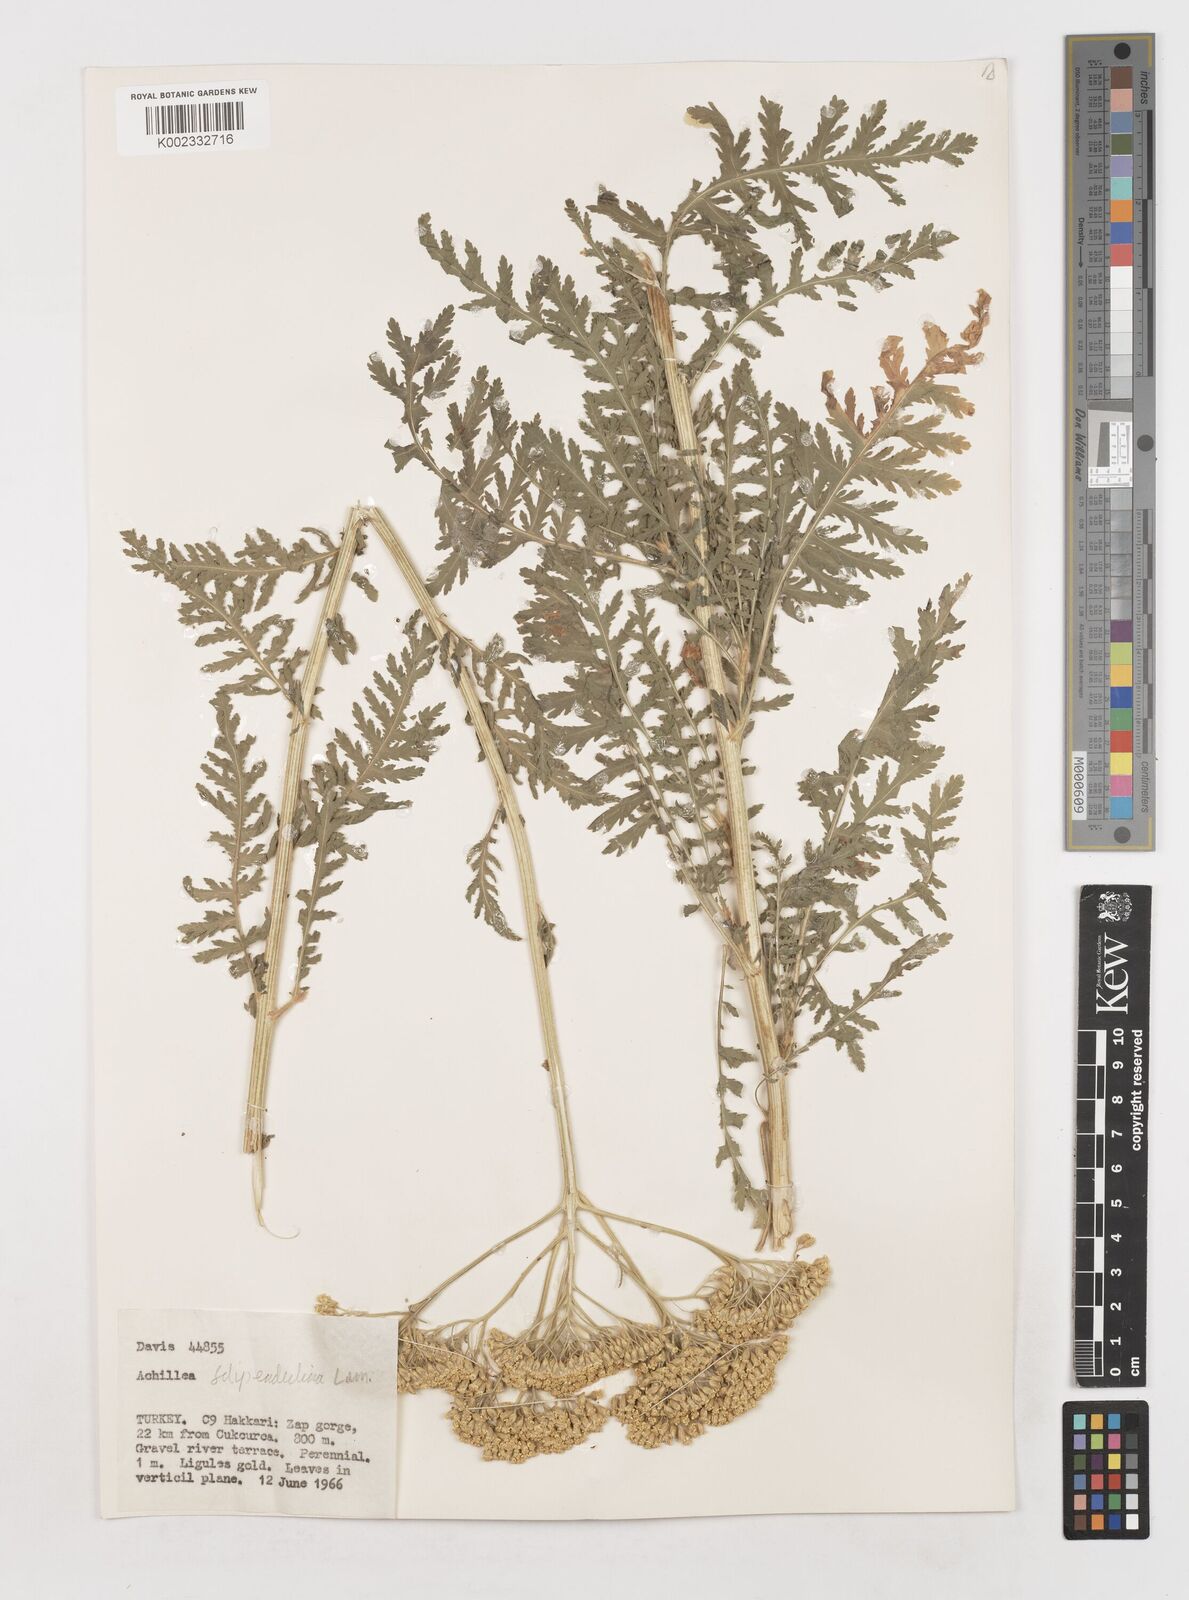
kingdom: Plantae
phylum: Tracheophyta
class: Magnoliopsida
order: Asterales
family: Asteraceae
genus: Achillea
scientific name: Achillea filipendulina
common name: Fernleaf yarrow
